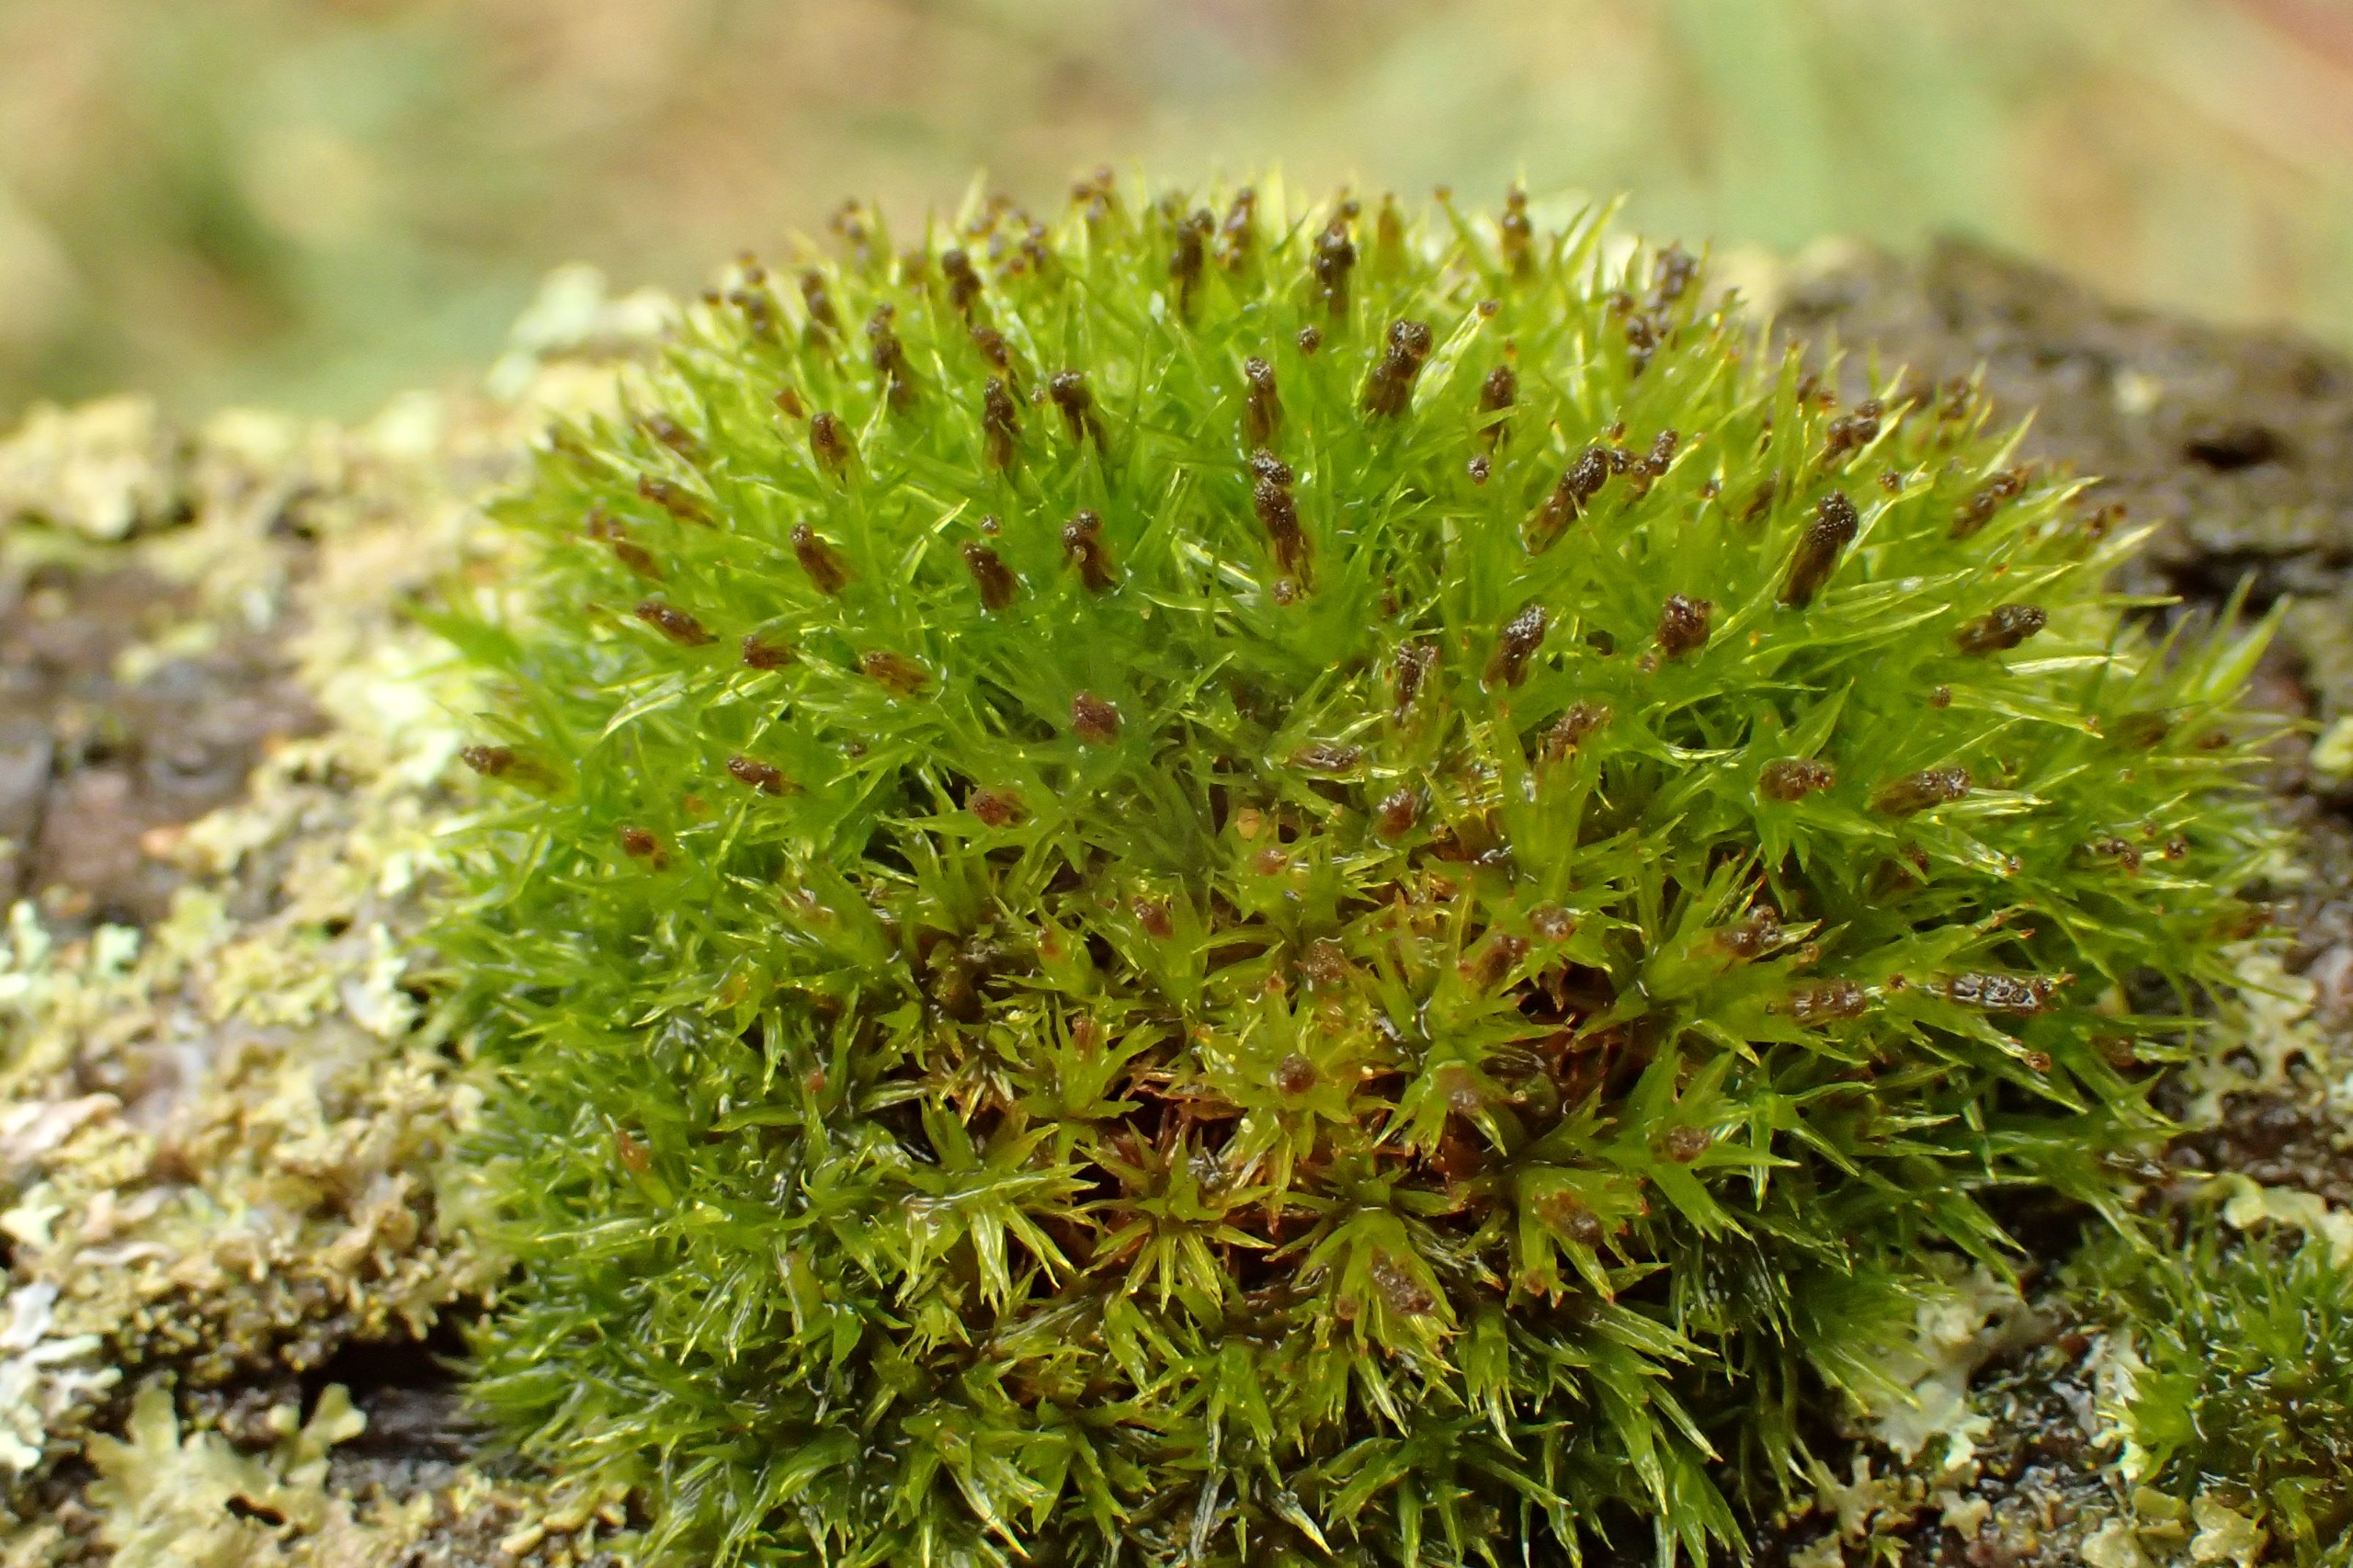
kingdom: Plantae
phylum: Bryophyta
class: Bryopsida
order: Orthotrichales
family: Orthotrichaceae
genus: Plenogemma
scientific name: Plenogemma phyllantha
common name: Stor låddenhætte
